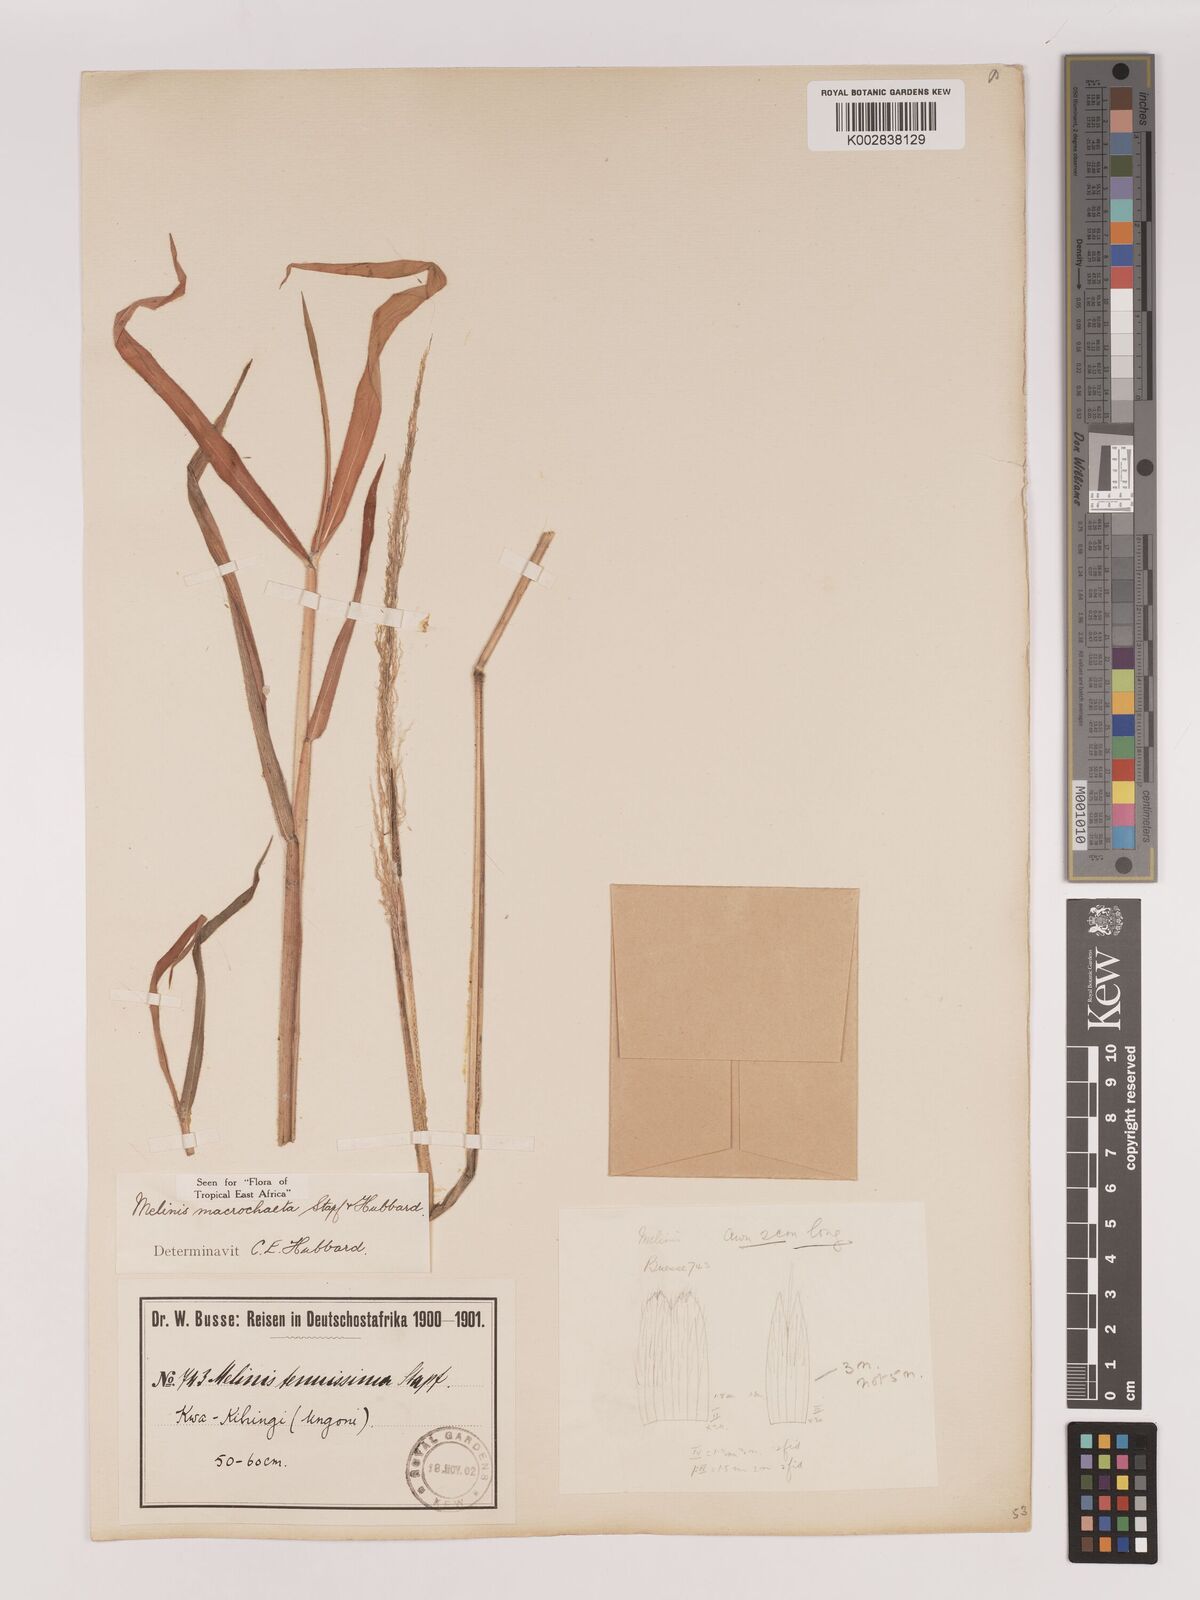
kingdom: Plantae
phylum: Tracheophyta
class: Liliopsida
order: Poales
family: Poaceae
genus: Melinis
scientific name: Melinis macrochaeta
